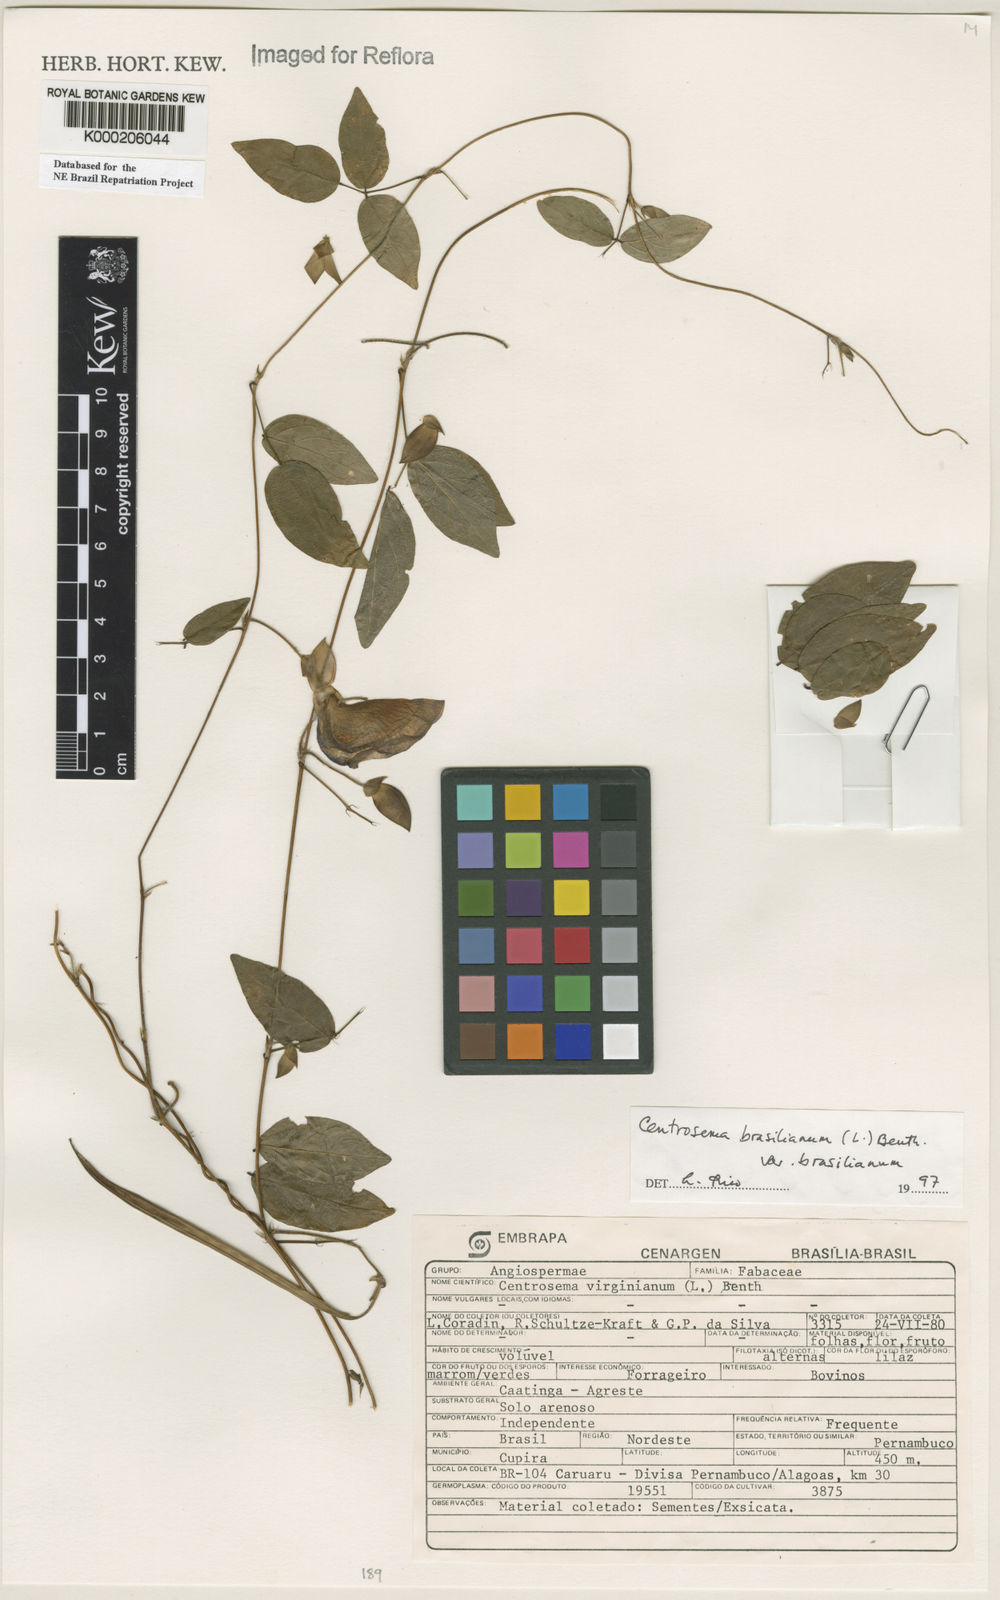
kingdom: Plantae
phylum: Tracheophyta
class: Magnoliopsida
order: Fabales
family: Fabaceae
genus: Centrosema
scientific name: Centrosema brasilianum
